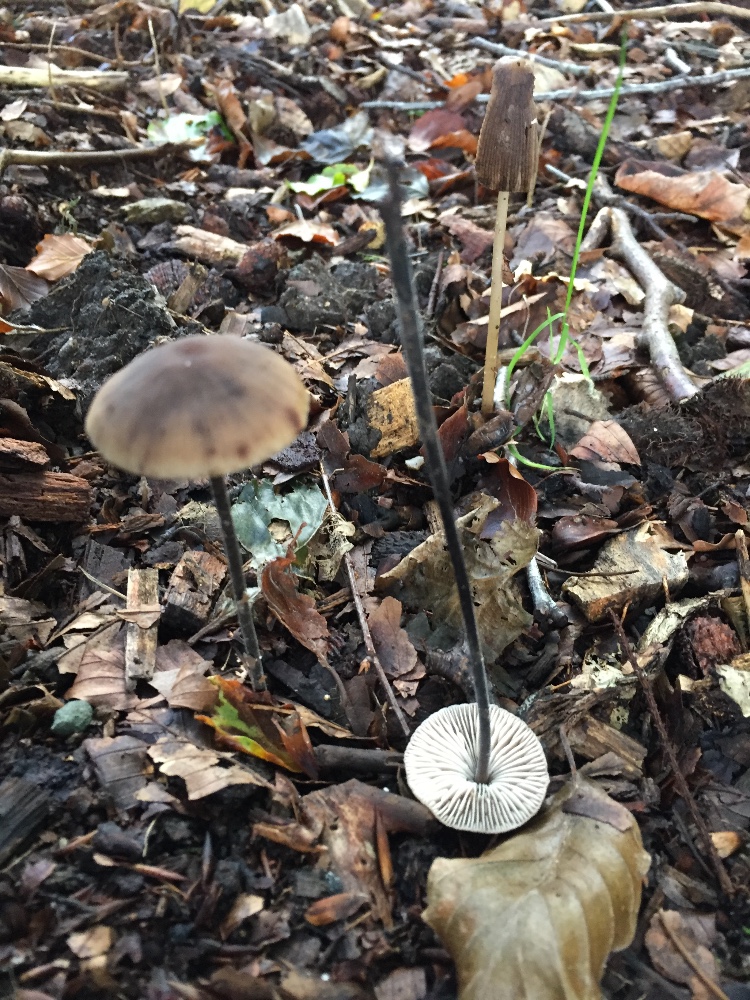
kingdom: Fungi
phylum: Basidiomycota
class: Agaricomycetes
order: Agaricales
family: Omphalotaceae
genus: Mycetinis
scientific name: Mycetinis alliaceus
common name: stor løghat
